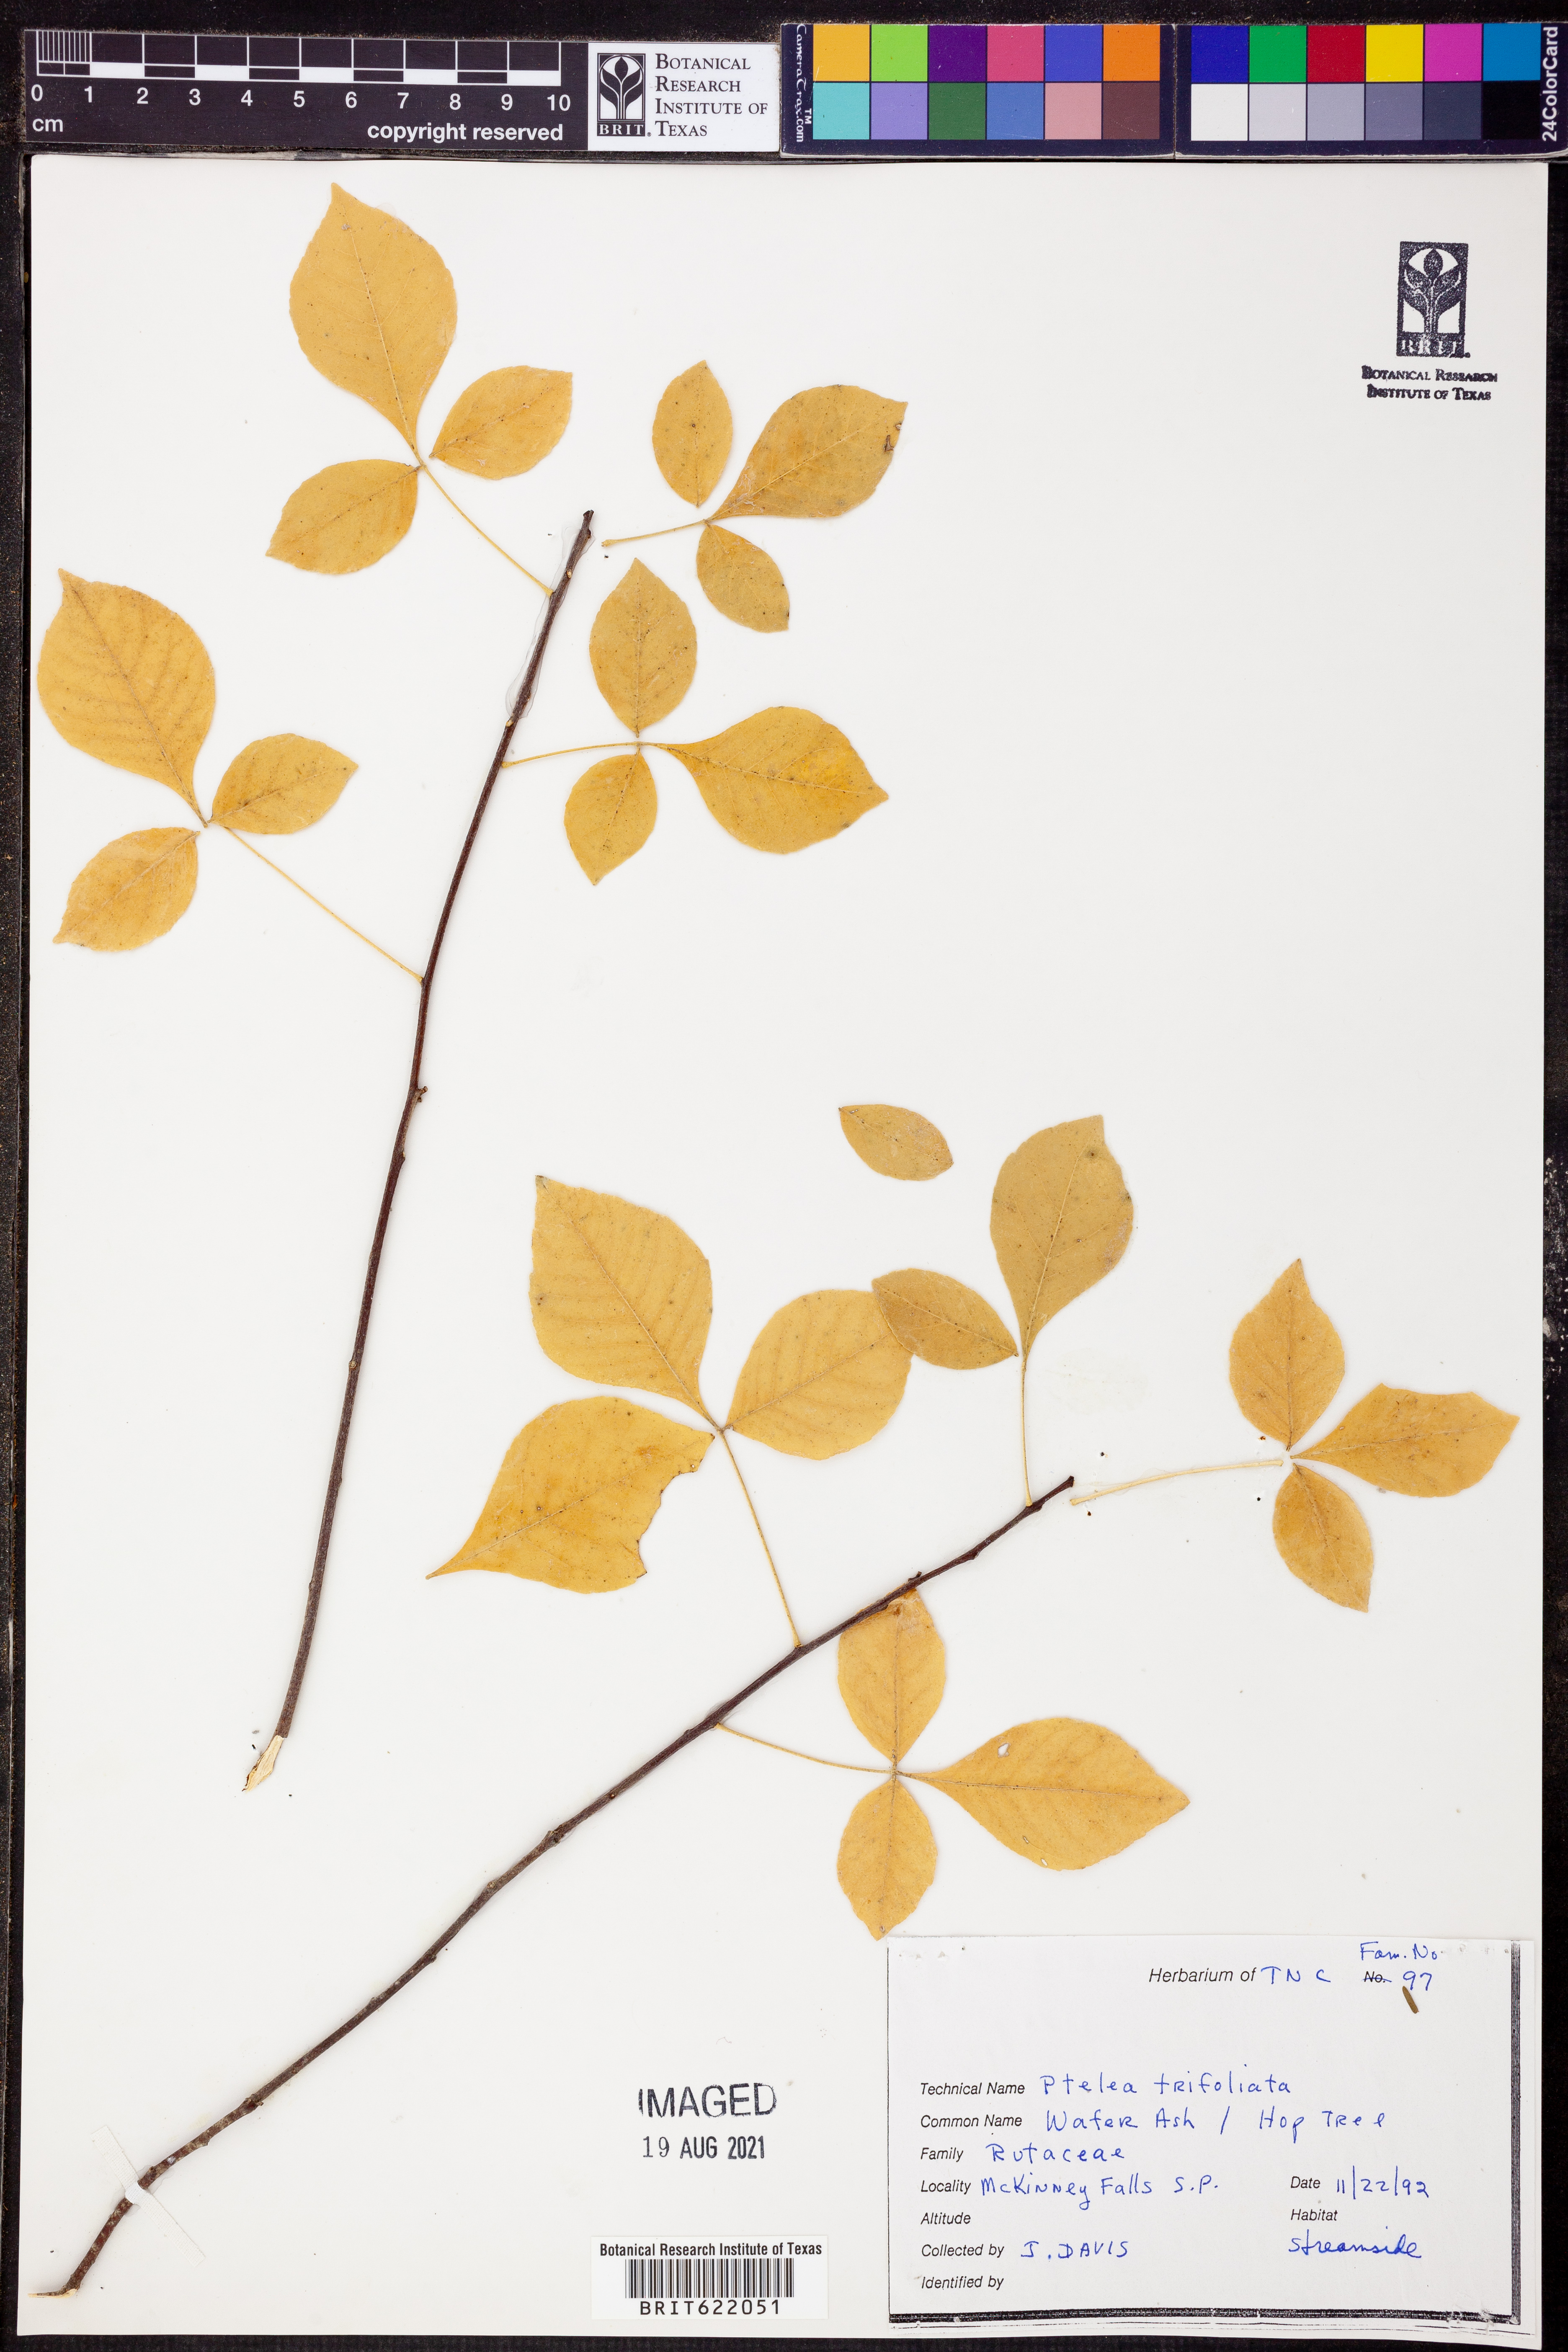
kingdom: Plantae
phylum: Tracheophyta
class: Magnoliopsida
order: Sapindales
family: Rutaceae
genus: Ptelea
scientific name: Ptelea trifoliata
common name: Common hop-tree
